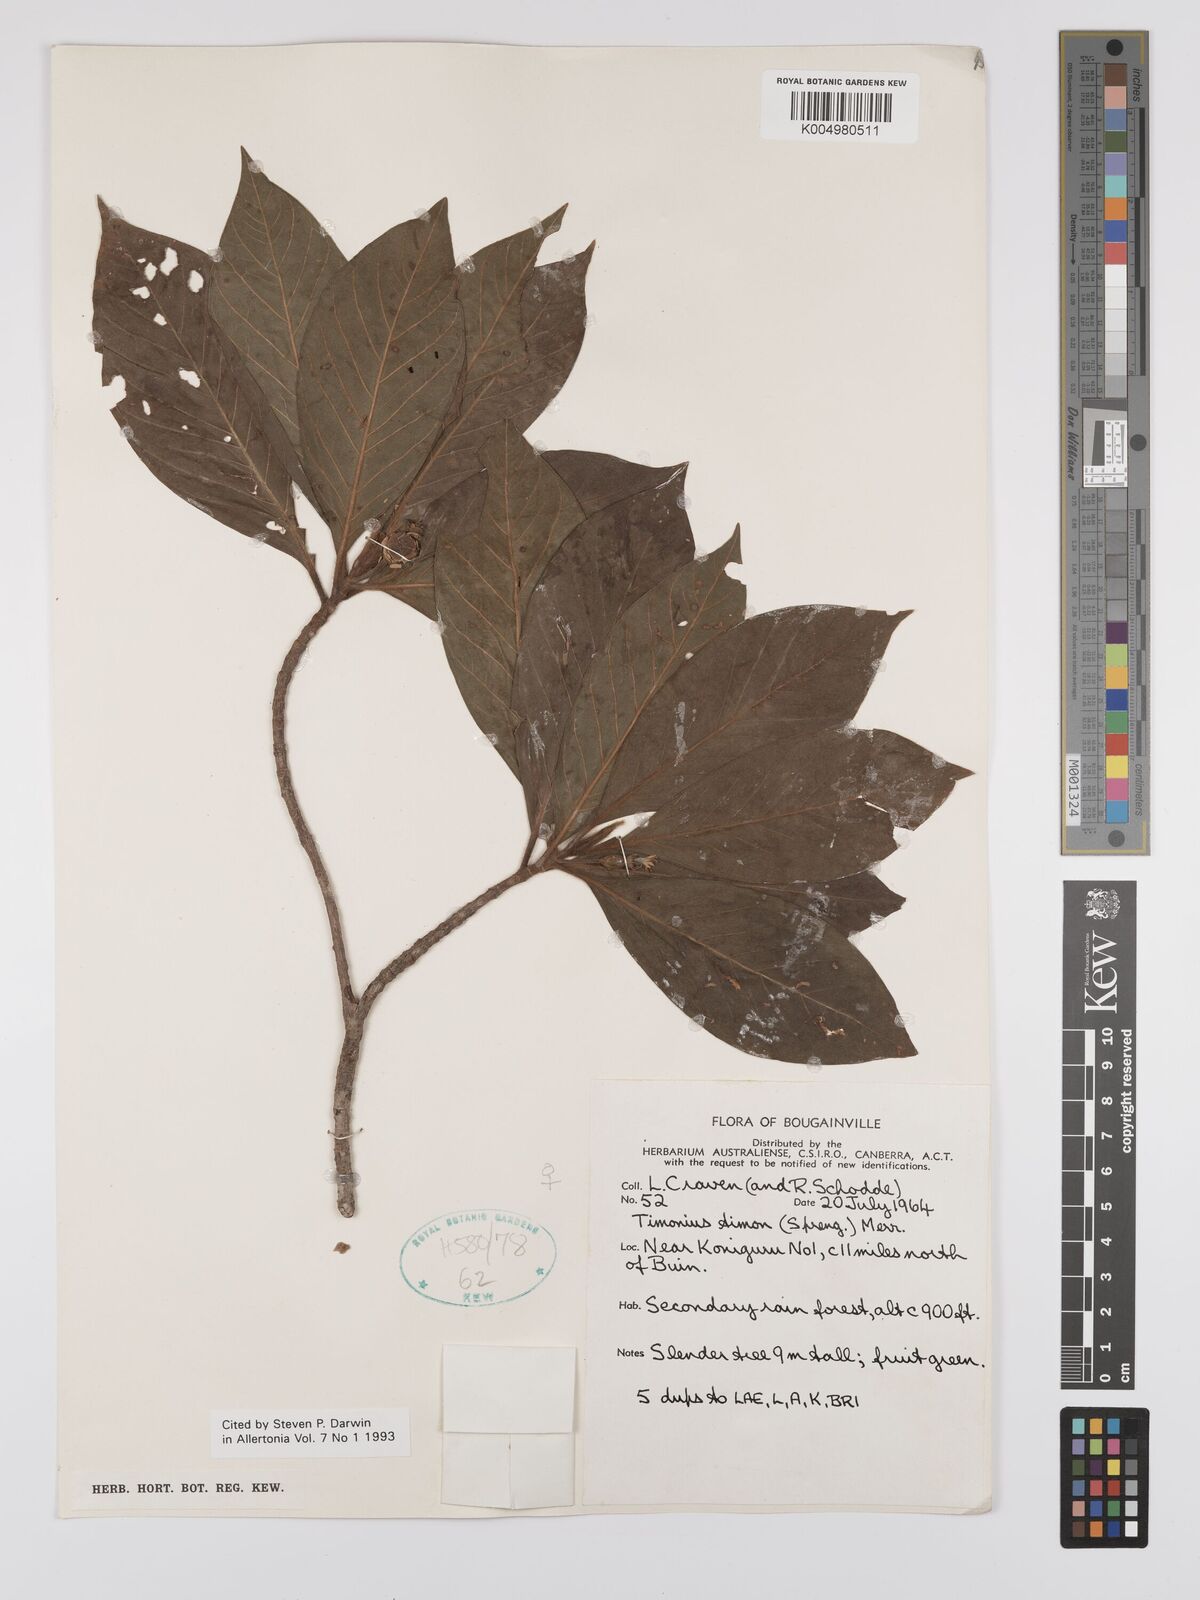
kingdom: Plantae
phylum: Tracheophyta
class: Magnoliopsida
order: Gentianales
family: Rubiaceae
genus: Timonius
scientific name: Timonius timon
